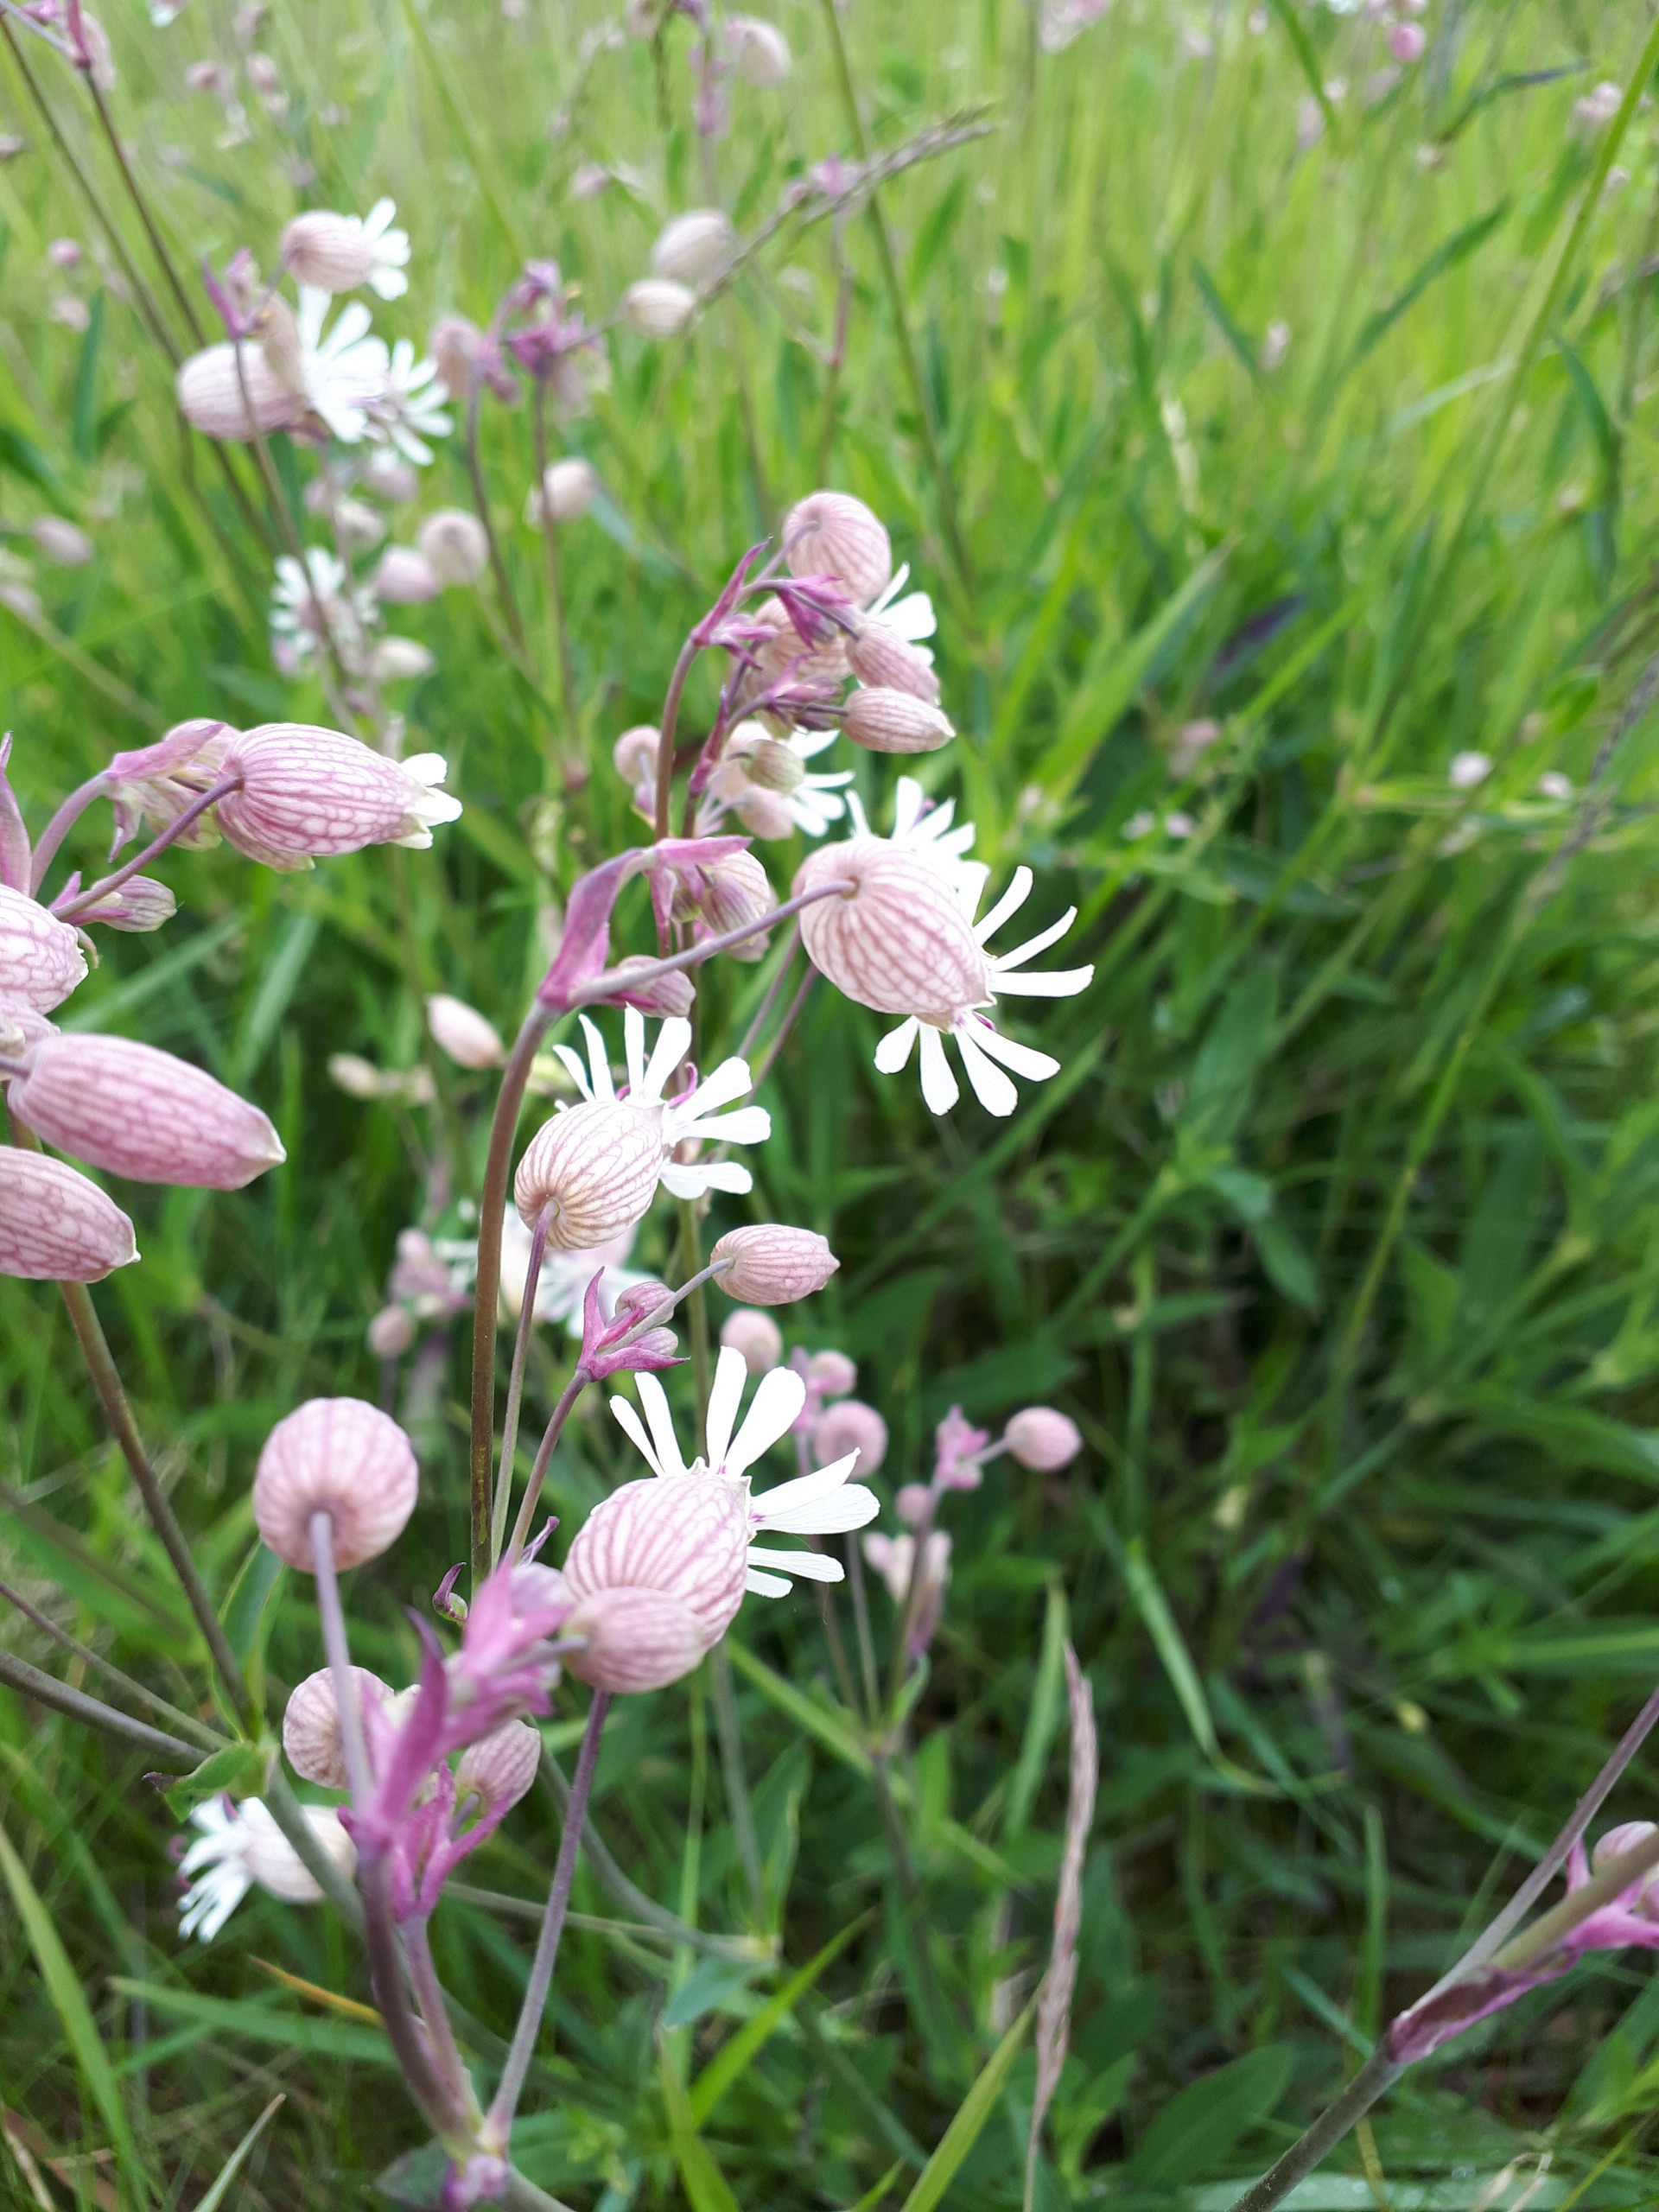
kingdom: Plantae
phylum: Tracheophyta
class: Magnoliopsida
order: Caryophyllales
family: Caryophyllaceae
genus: Silene
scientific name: Silene vulgaris
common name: Blæresmælde
